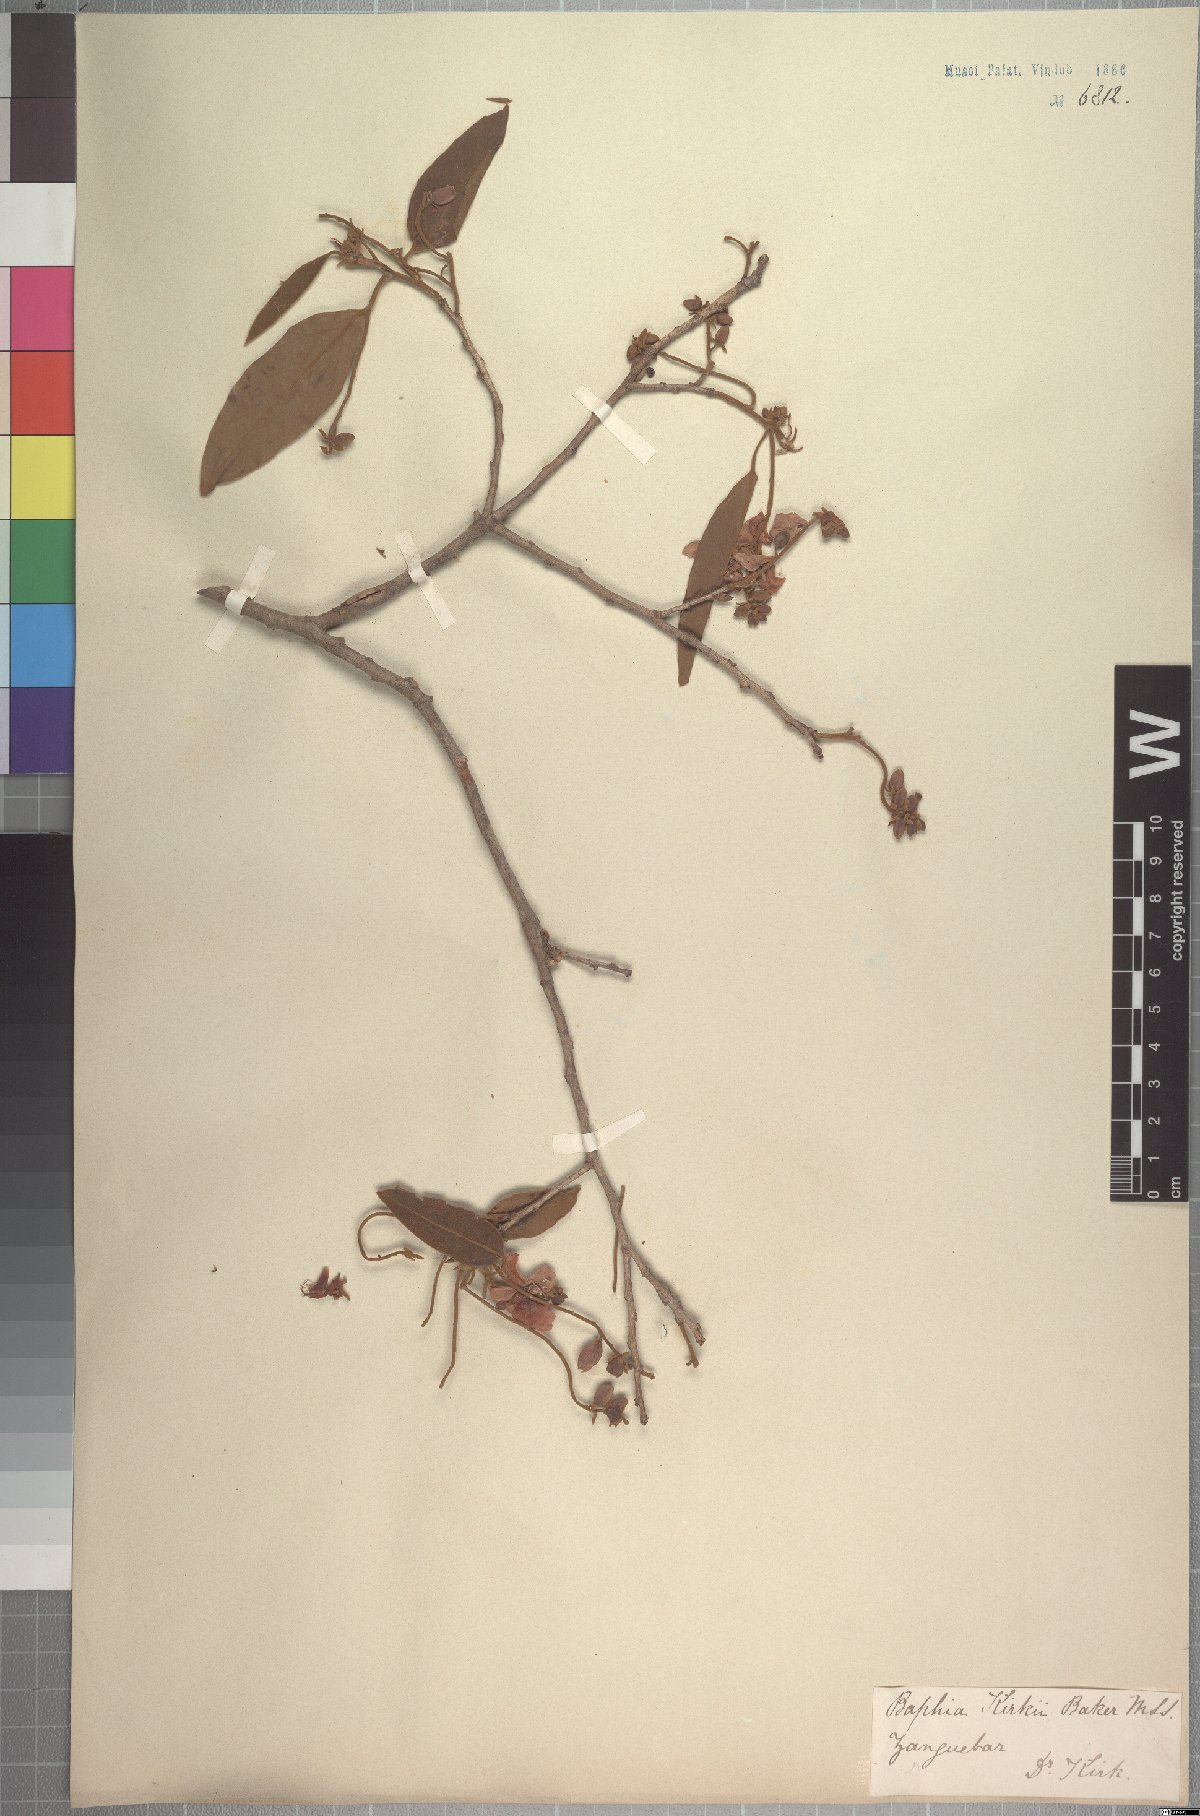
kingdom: Plantae
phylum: Tracheophyta
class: Magnoliopsida
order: Fabales
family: Fabaceae
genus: Baphia
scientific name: Baphia kirkii
